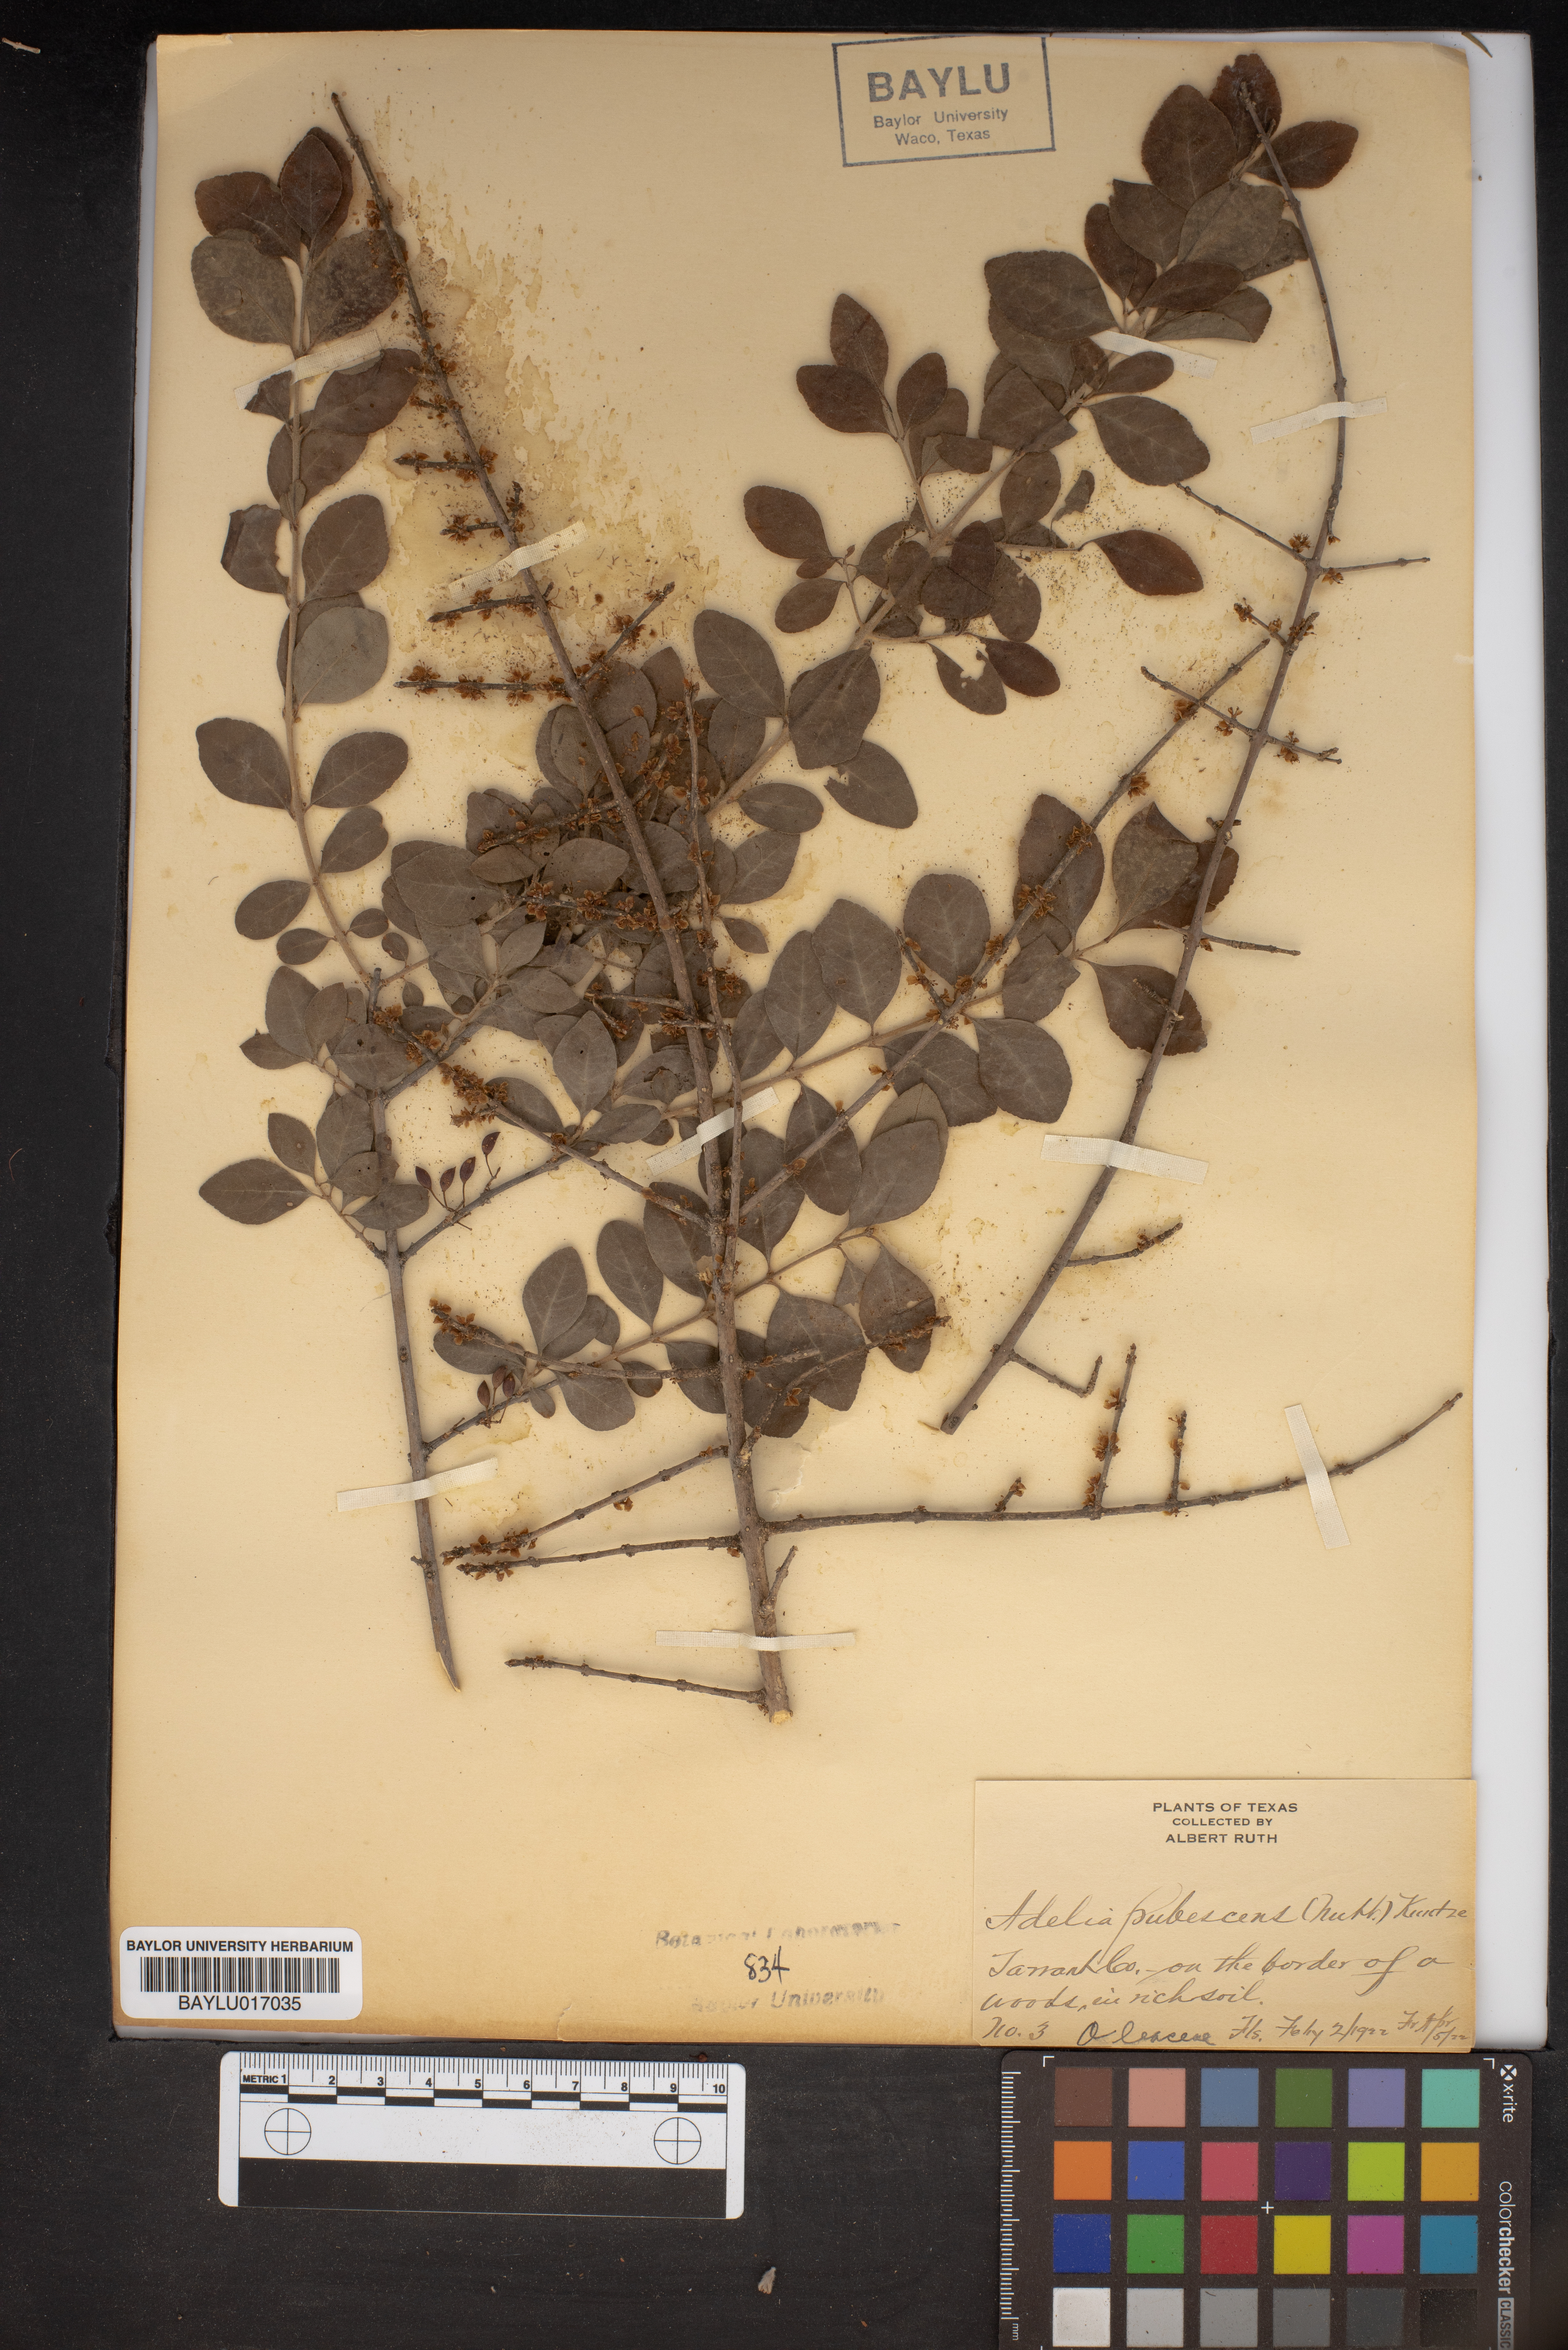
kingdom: Plantae
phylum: Tracheophyta
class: Magnoliopsida
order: Lamiales
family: Oleaceae
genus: Forestiera
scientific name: Forestiera pubescens
